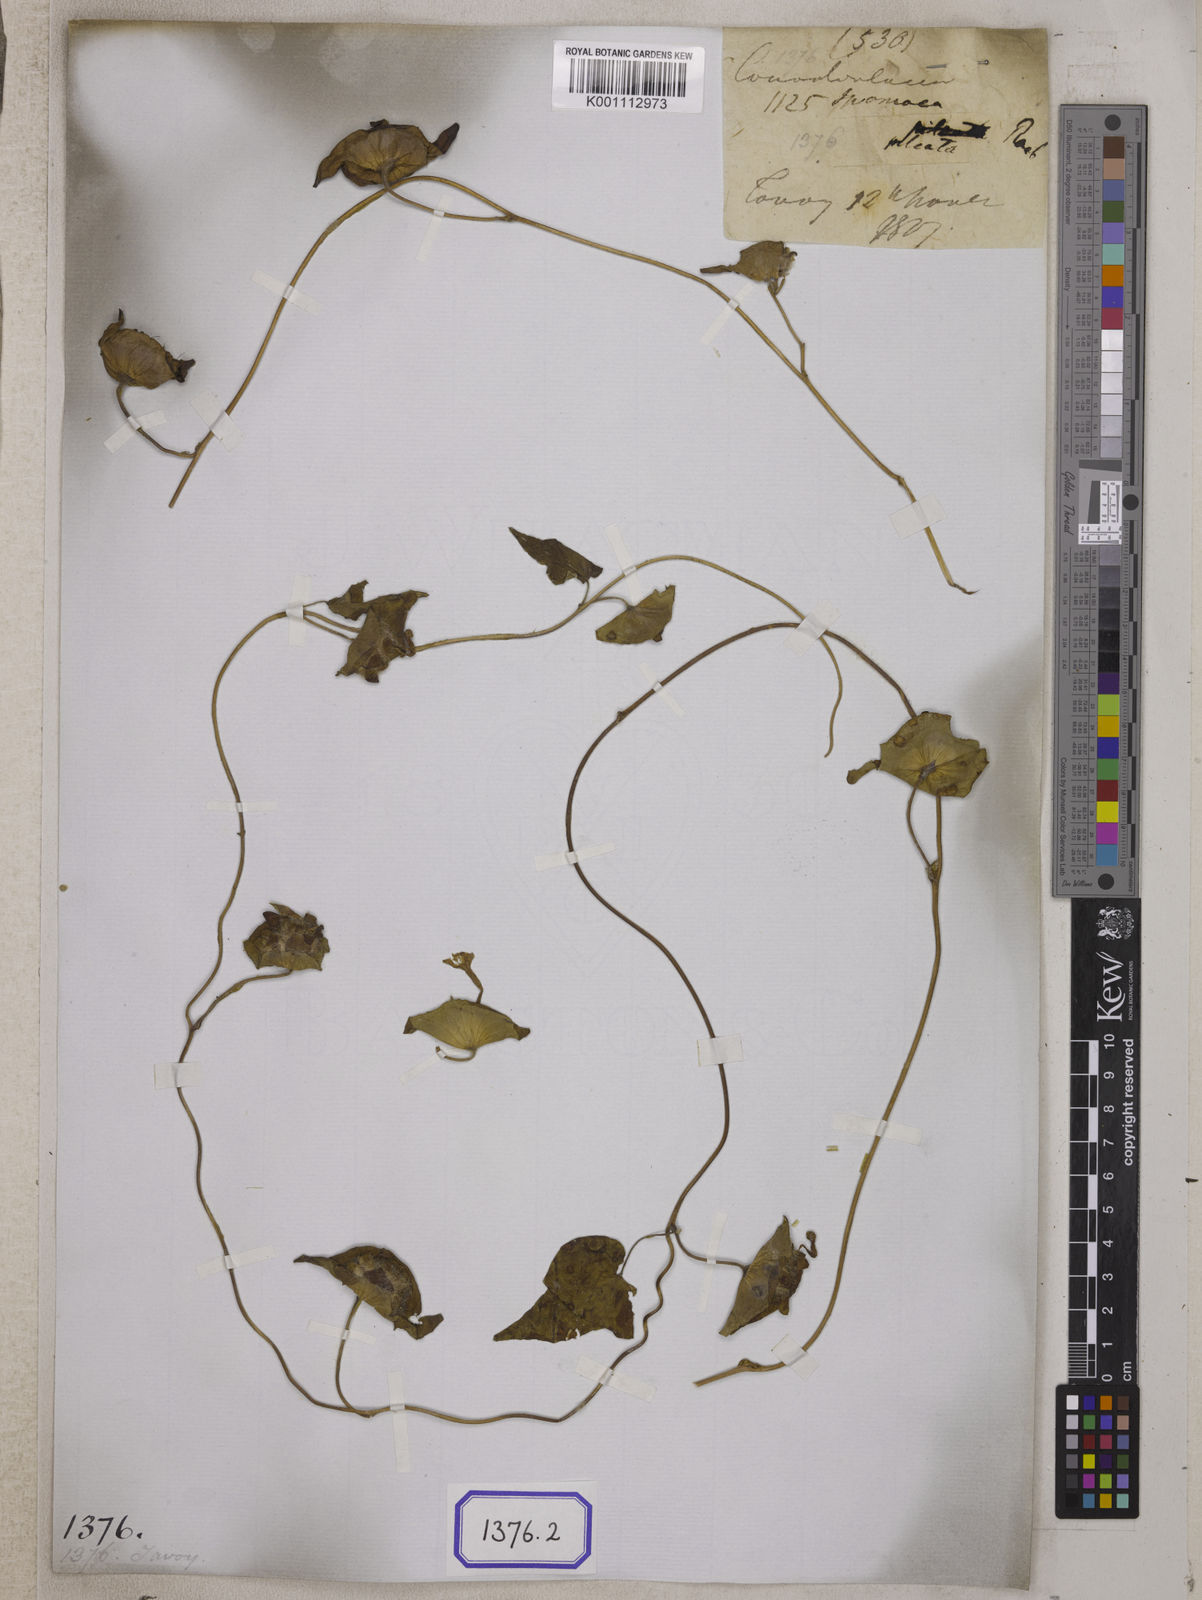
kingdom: Plantae
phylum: Tracheophyta
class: Magnoliopsida
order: Solanales
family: Convolvulaceae
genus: Ipomoea
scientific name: Ipomoea pileata
